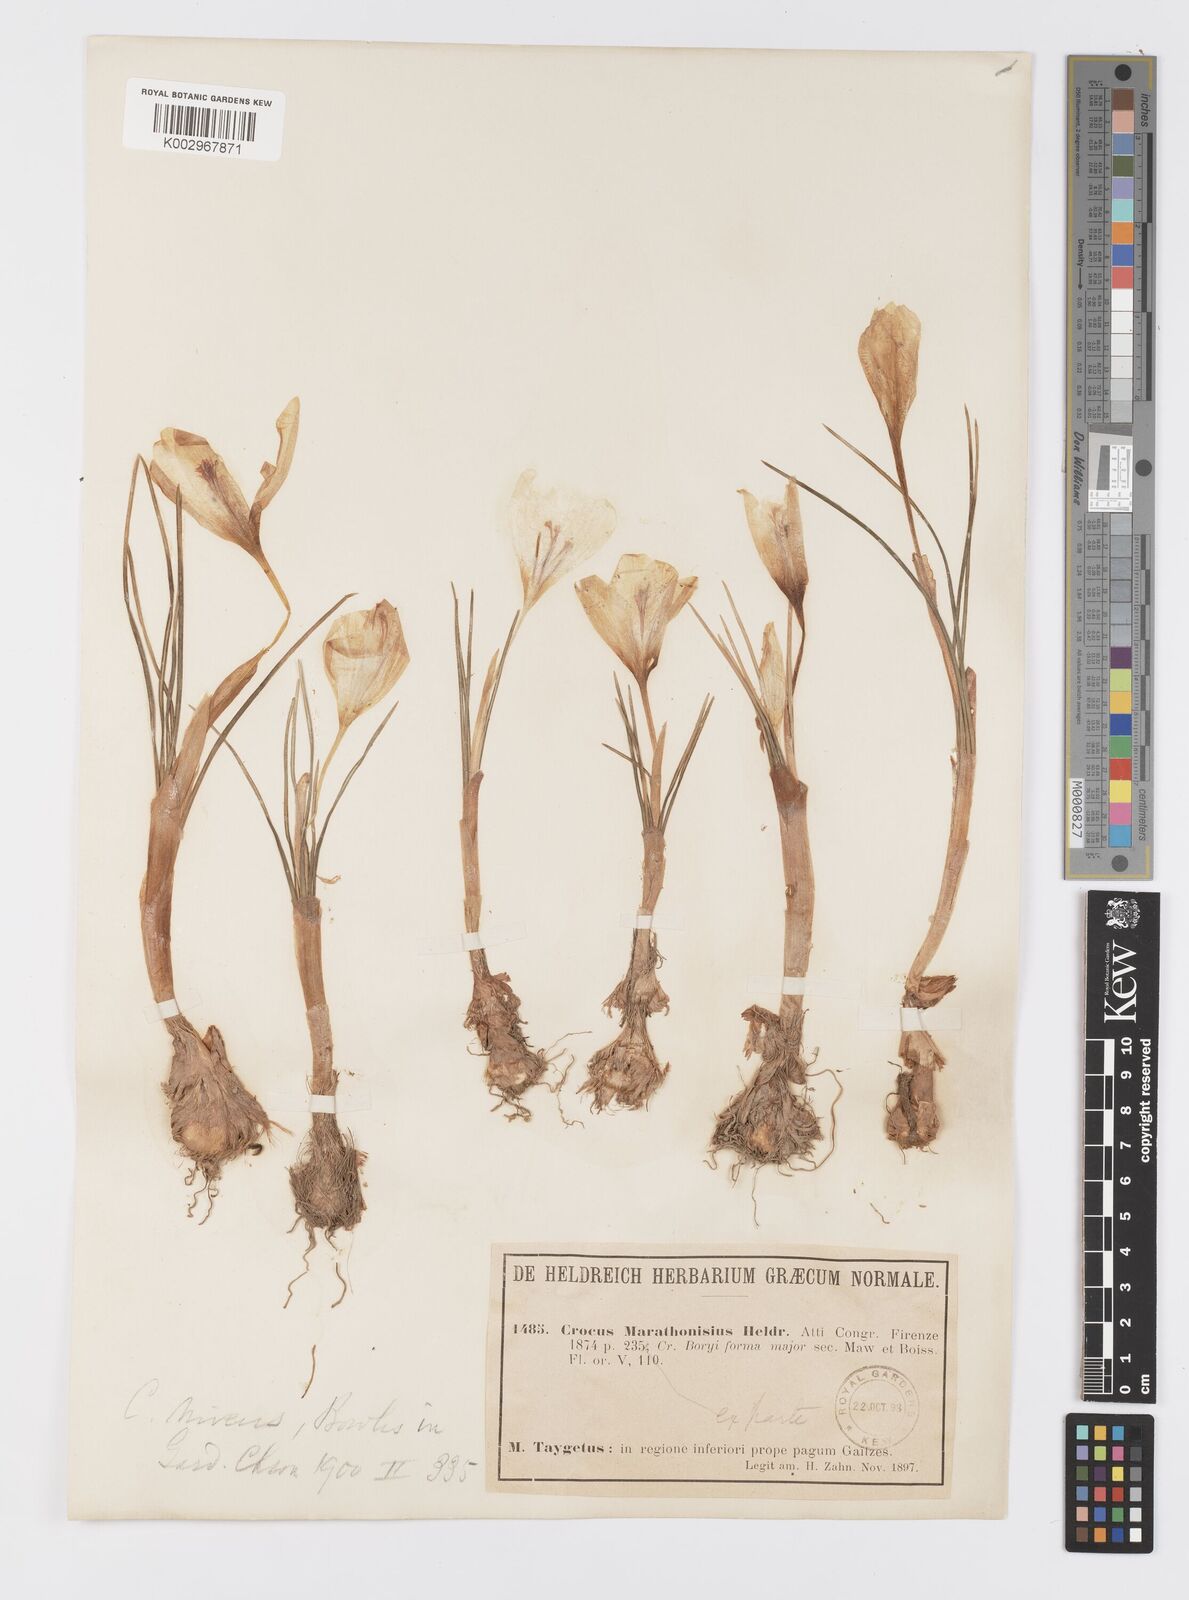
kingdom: Plantae
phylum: Tracheophyta
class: Liliopsida
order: Asparagales
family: Iridaceae
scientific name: Iridaceae
